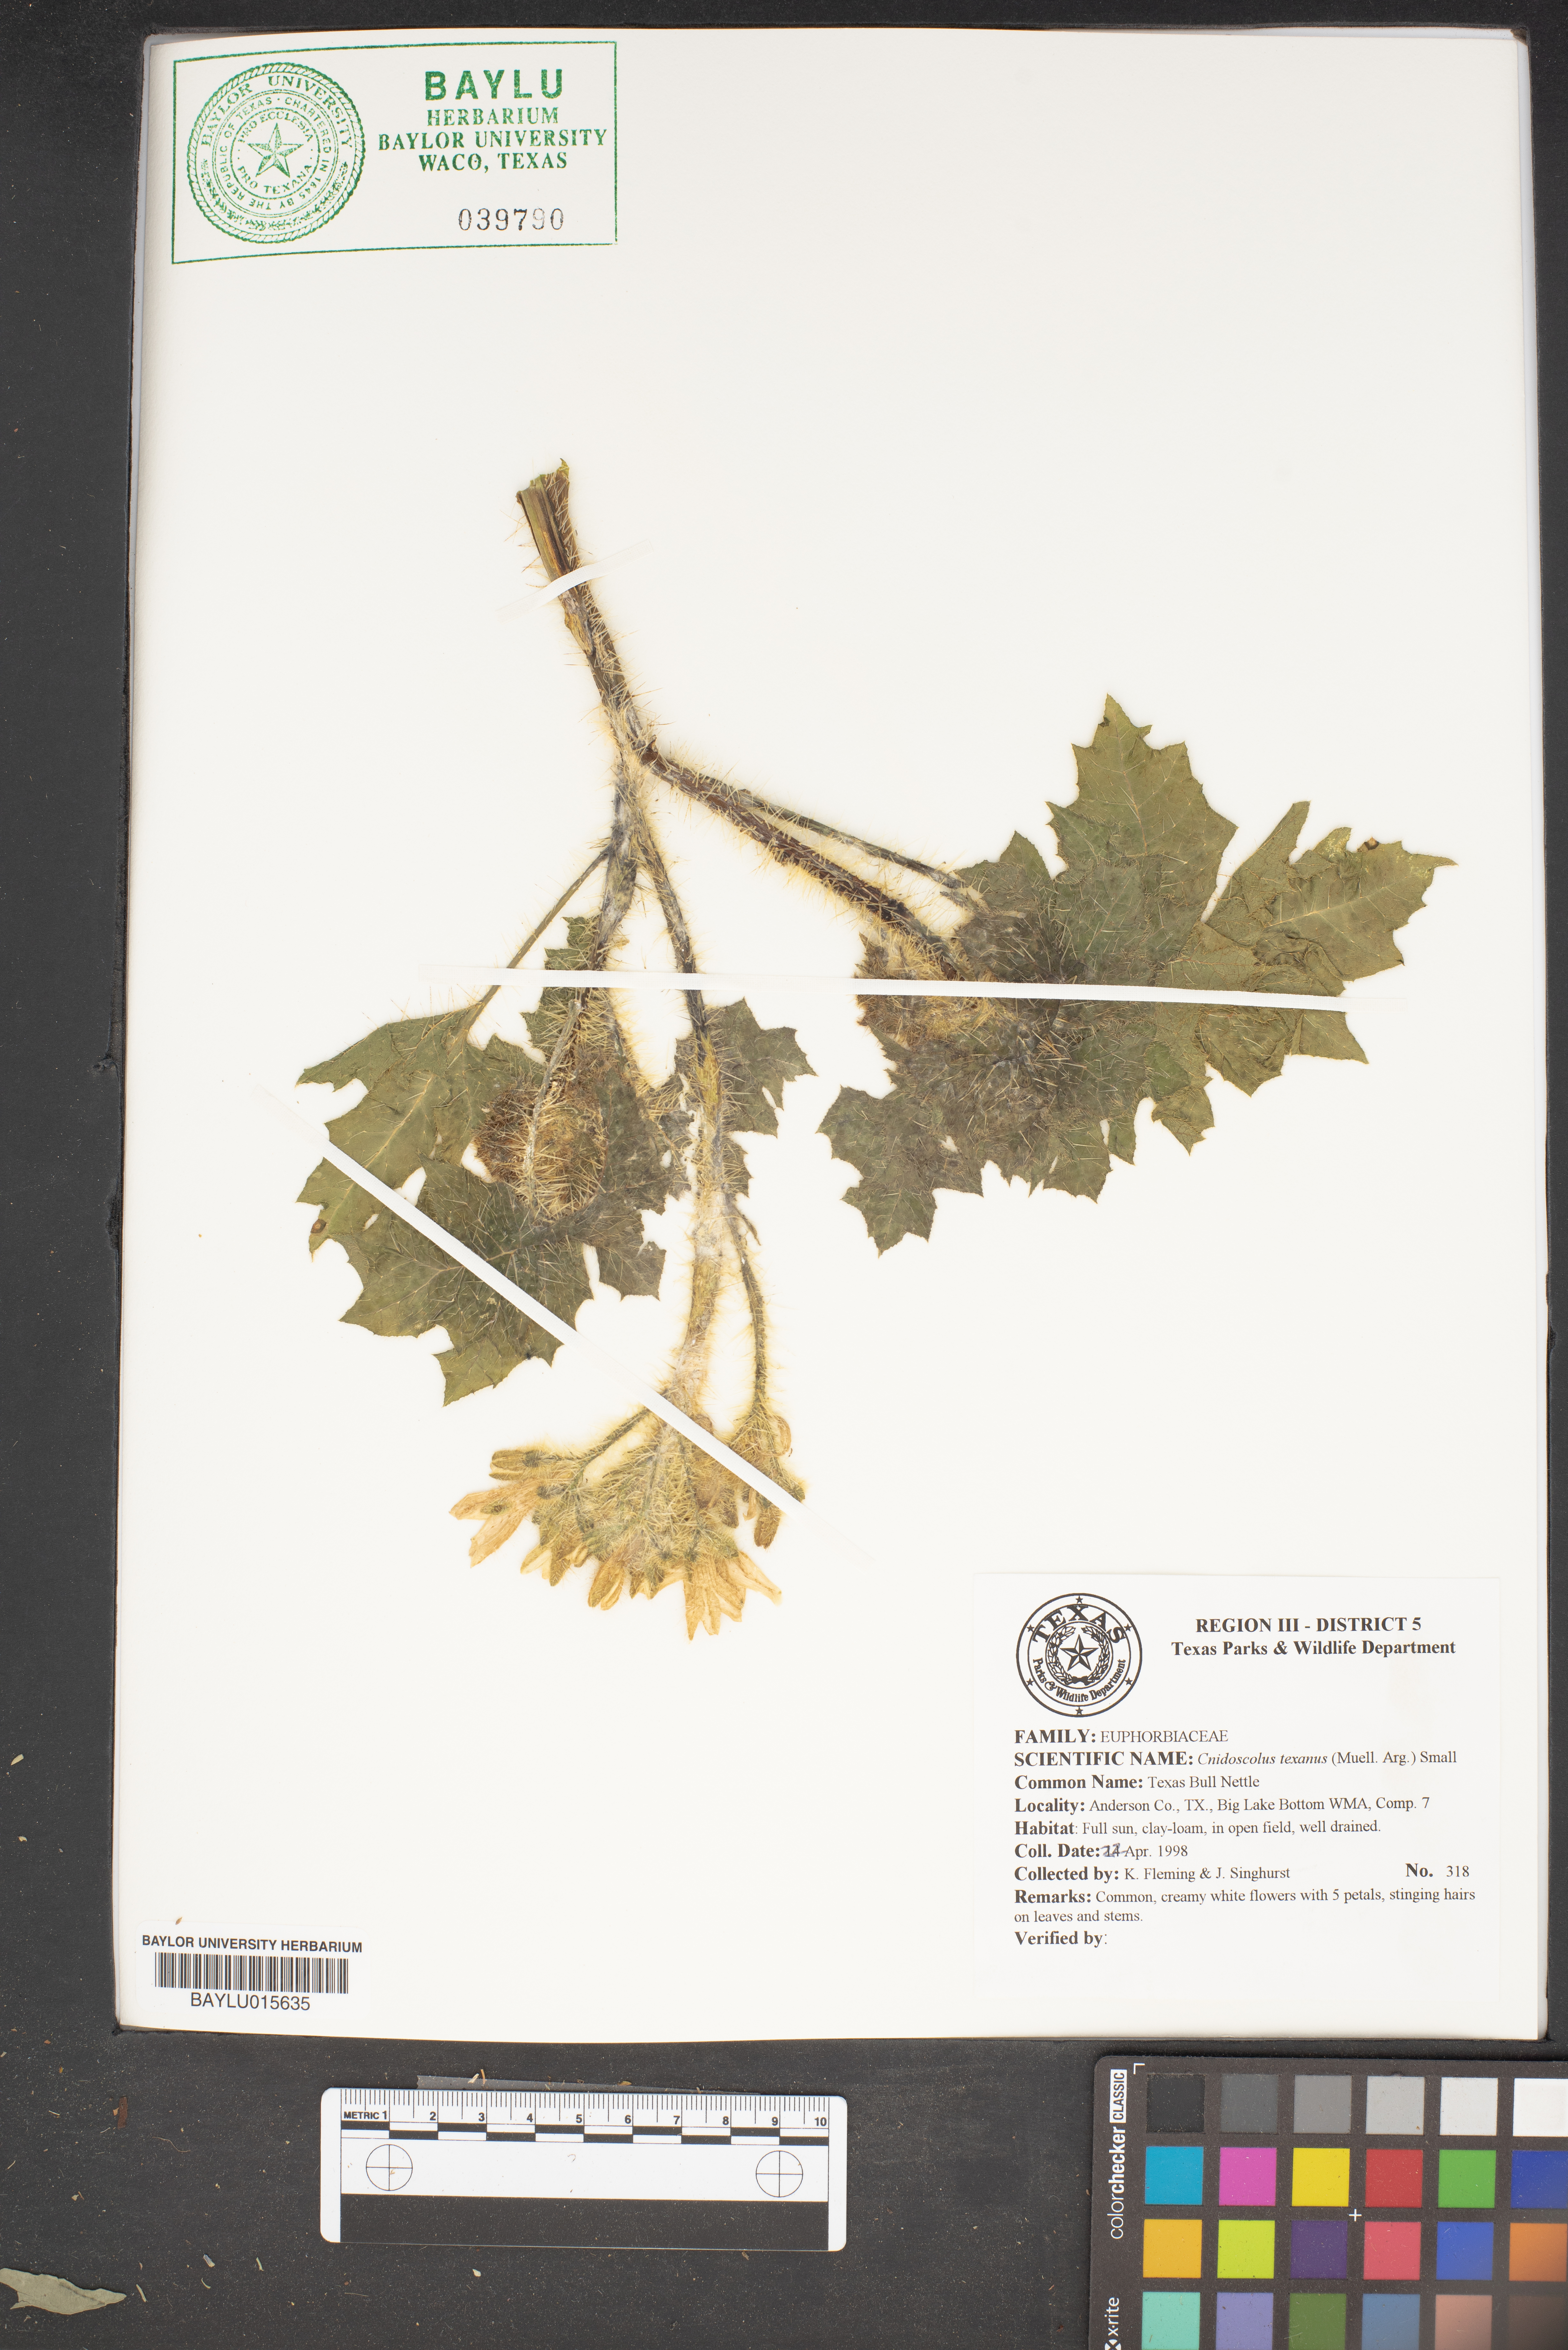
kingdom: Plantae
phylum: Tracheophyta
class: Magnoliopsida
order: Malpighiales
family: Euphorbiaceae
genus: Cnidoscolus
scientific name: Cnidoscolus texanus
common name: Texas bull-nettle
